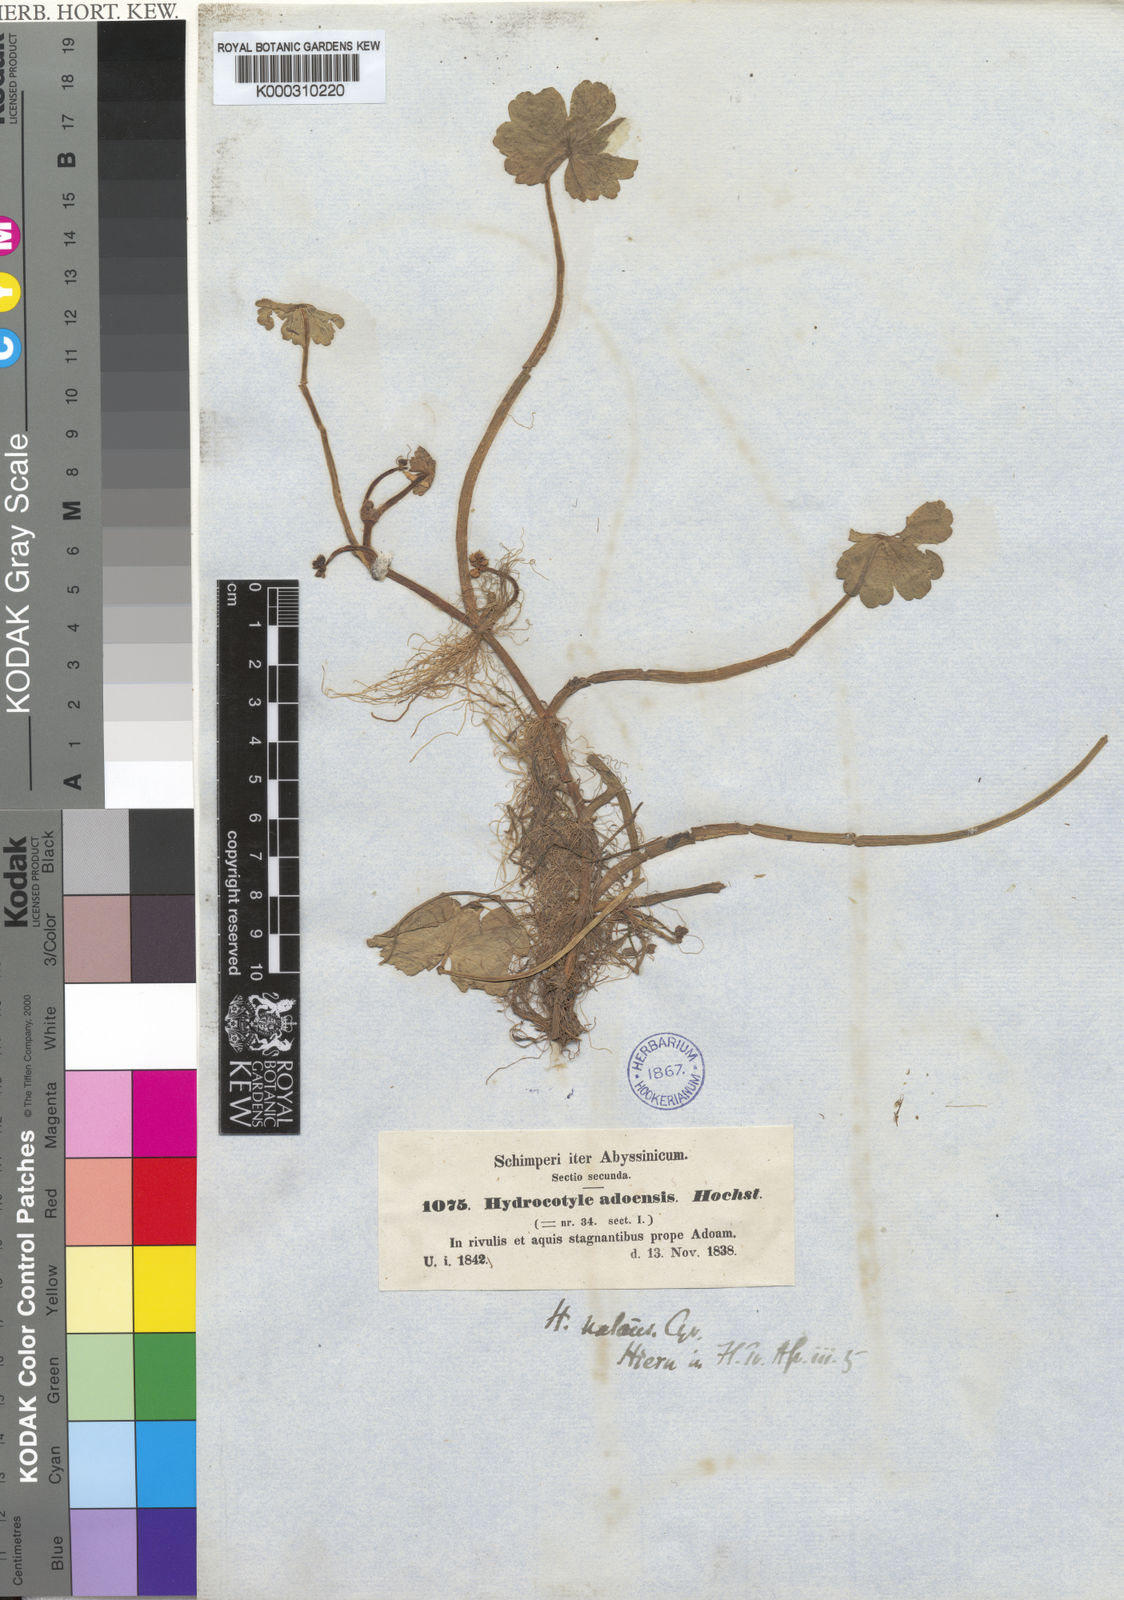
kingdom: Plantae
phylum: Tracheophyta
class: Magnoliopsida
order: Apiales
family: Araliaceae
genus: Hydrocotyle
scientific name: Hydrocotyle ranunculoides
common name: Floating pennywort
